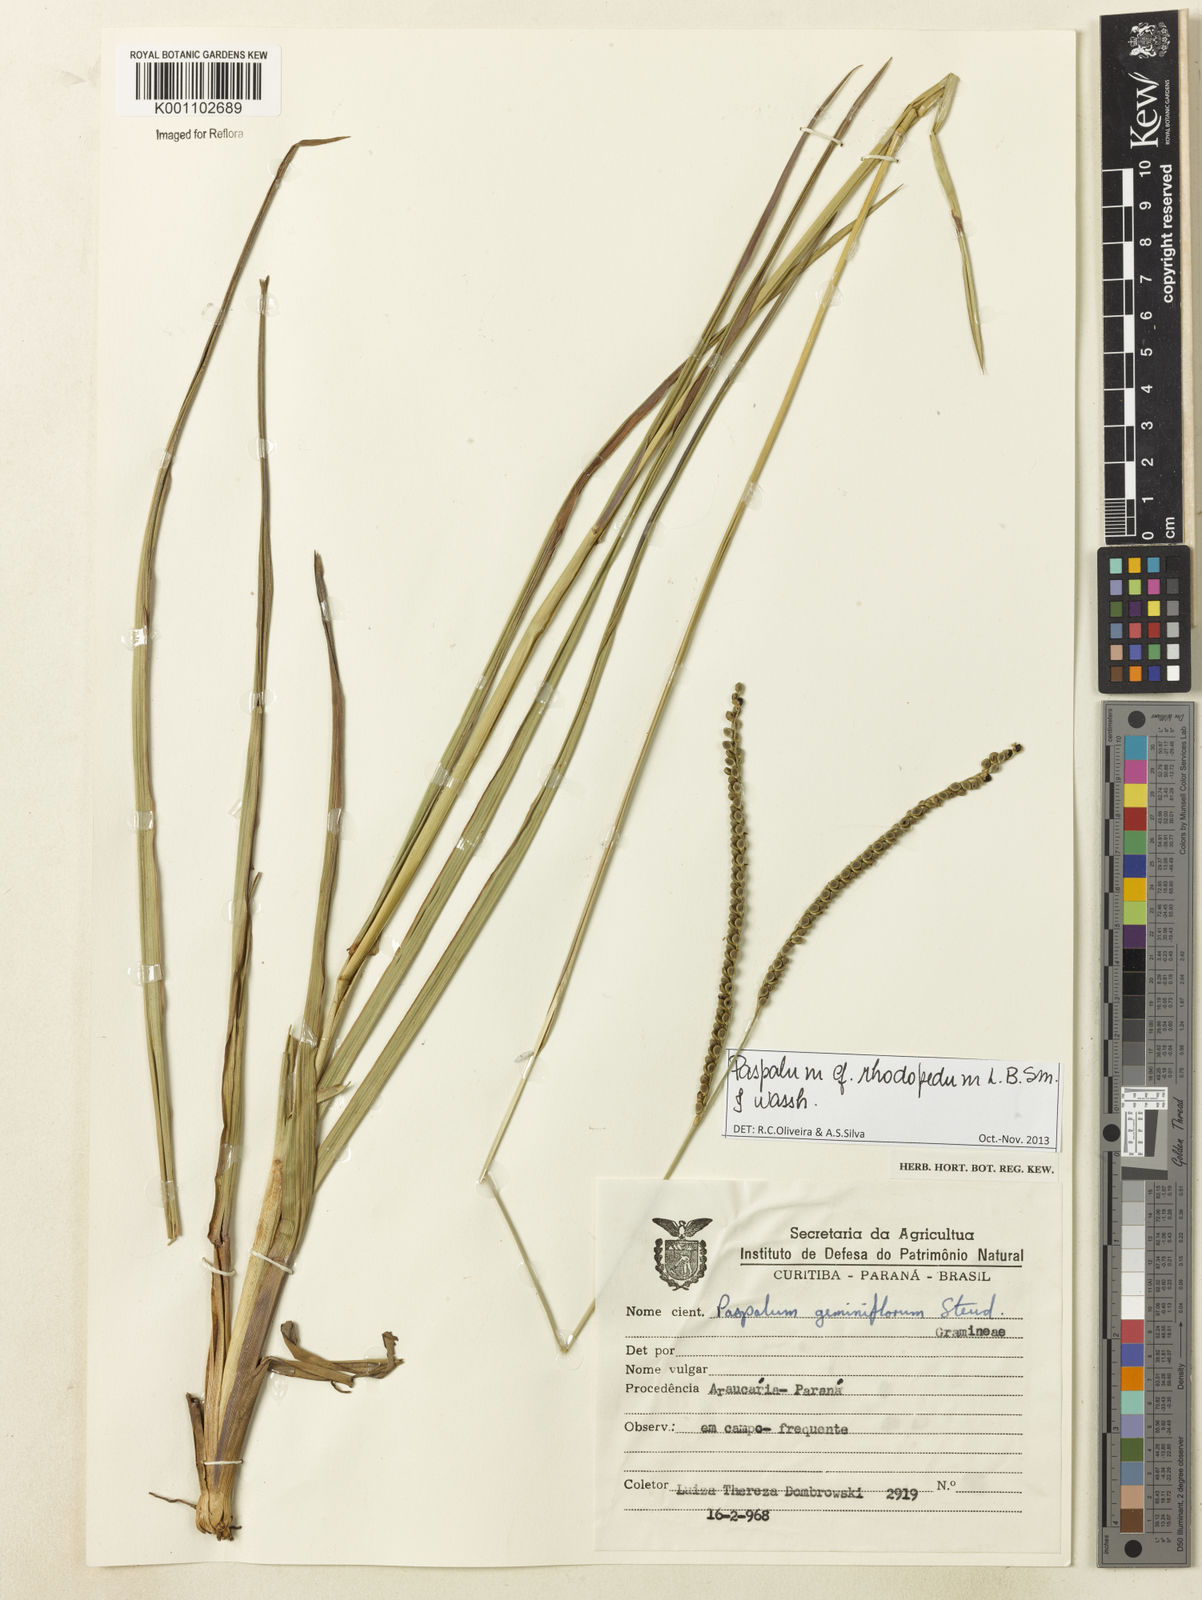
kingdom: Plantae
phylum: Tracheophyta
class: Liliopsida
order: Poales
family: Poaceae
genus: Paspalum
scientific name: Paspalum guenoarum
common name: Wintergreen paspalum
